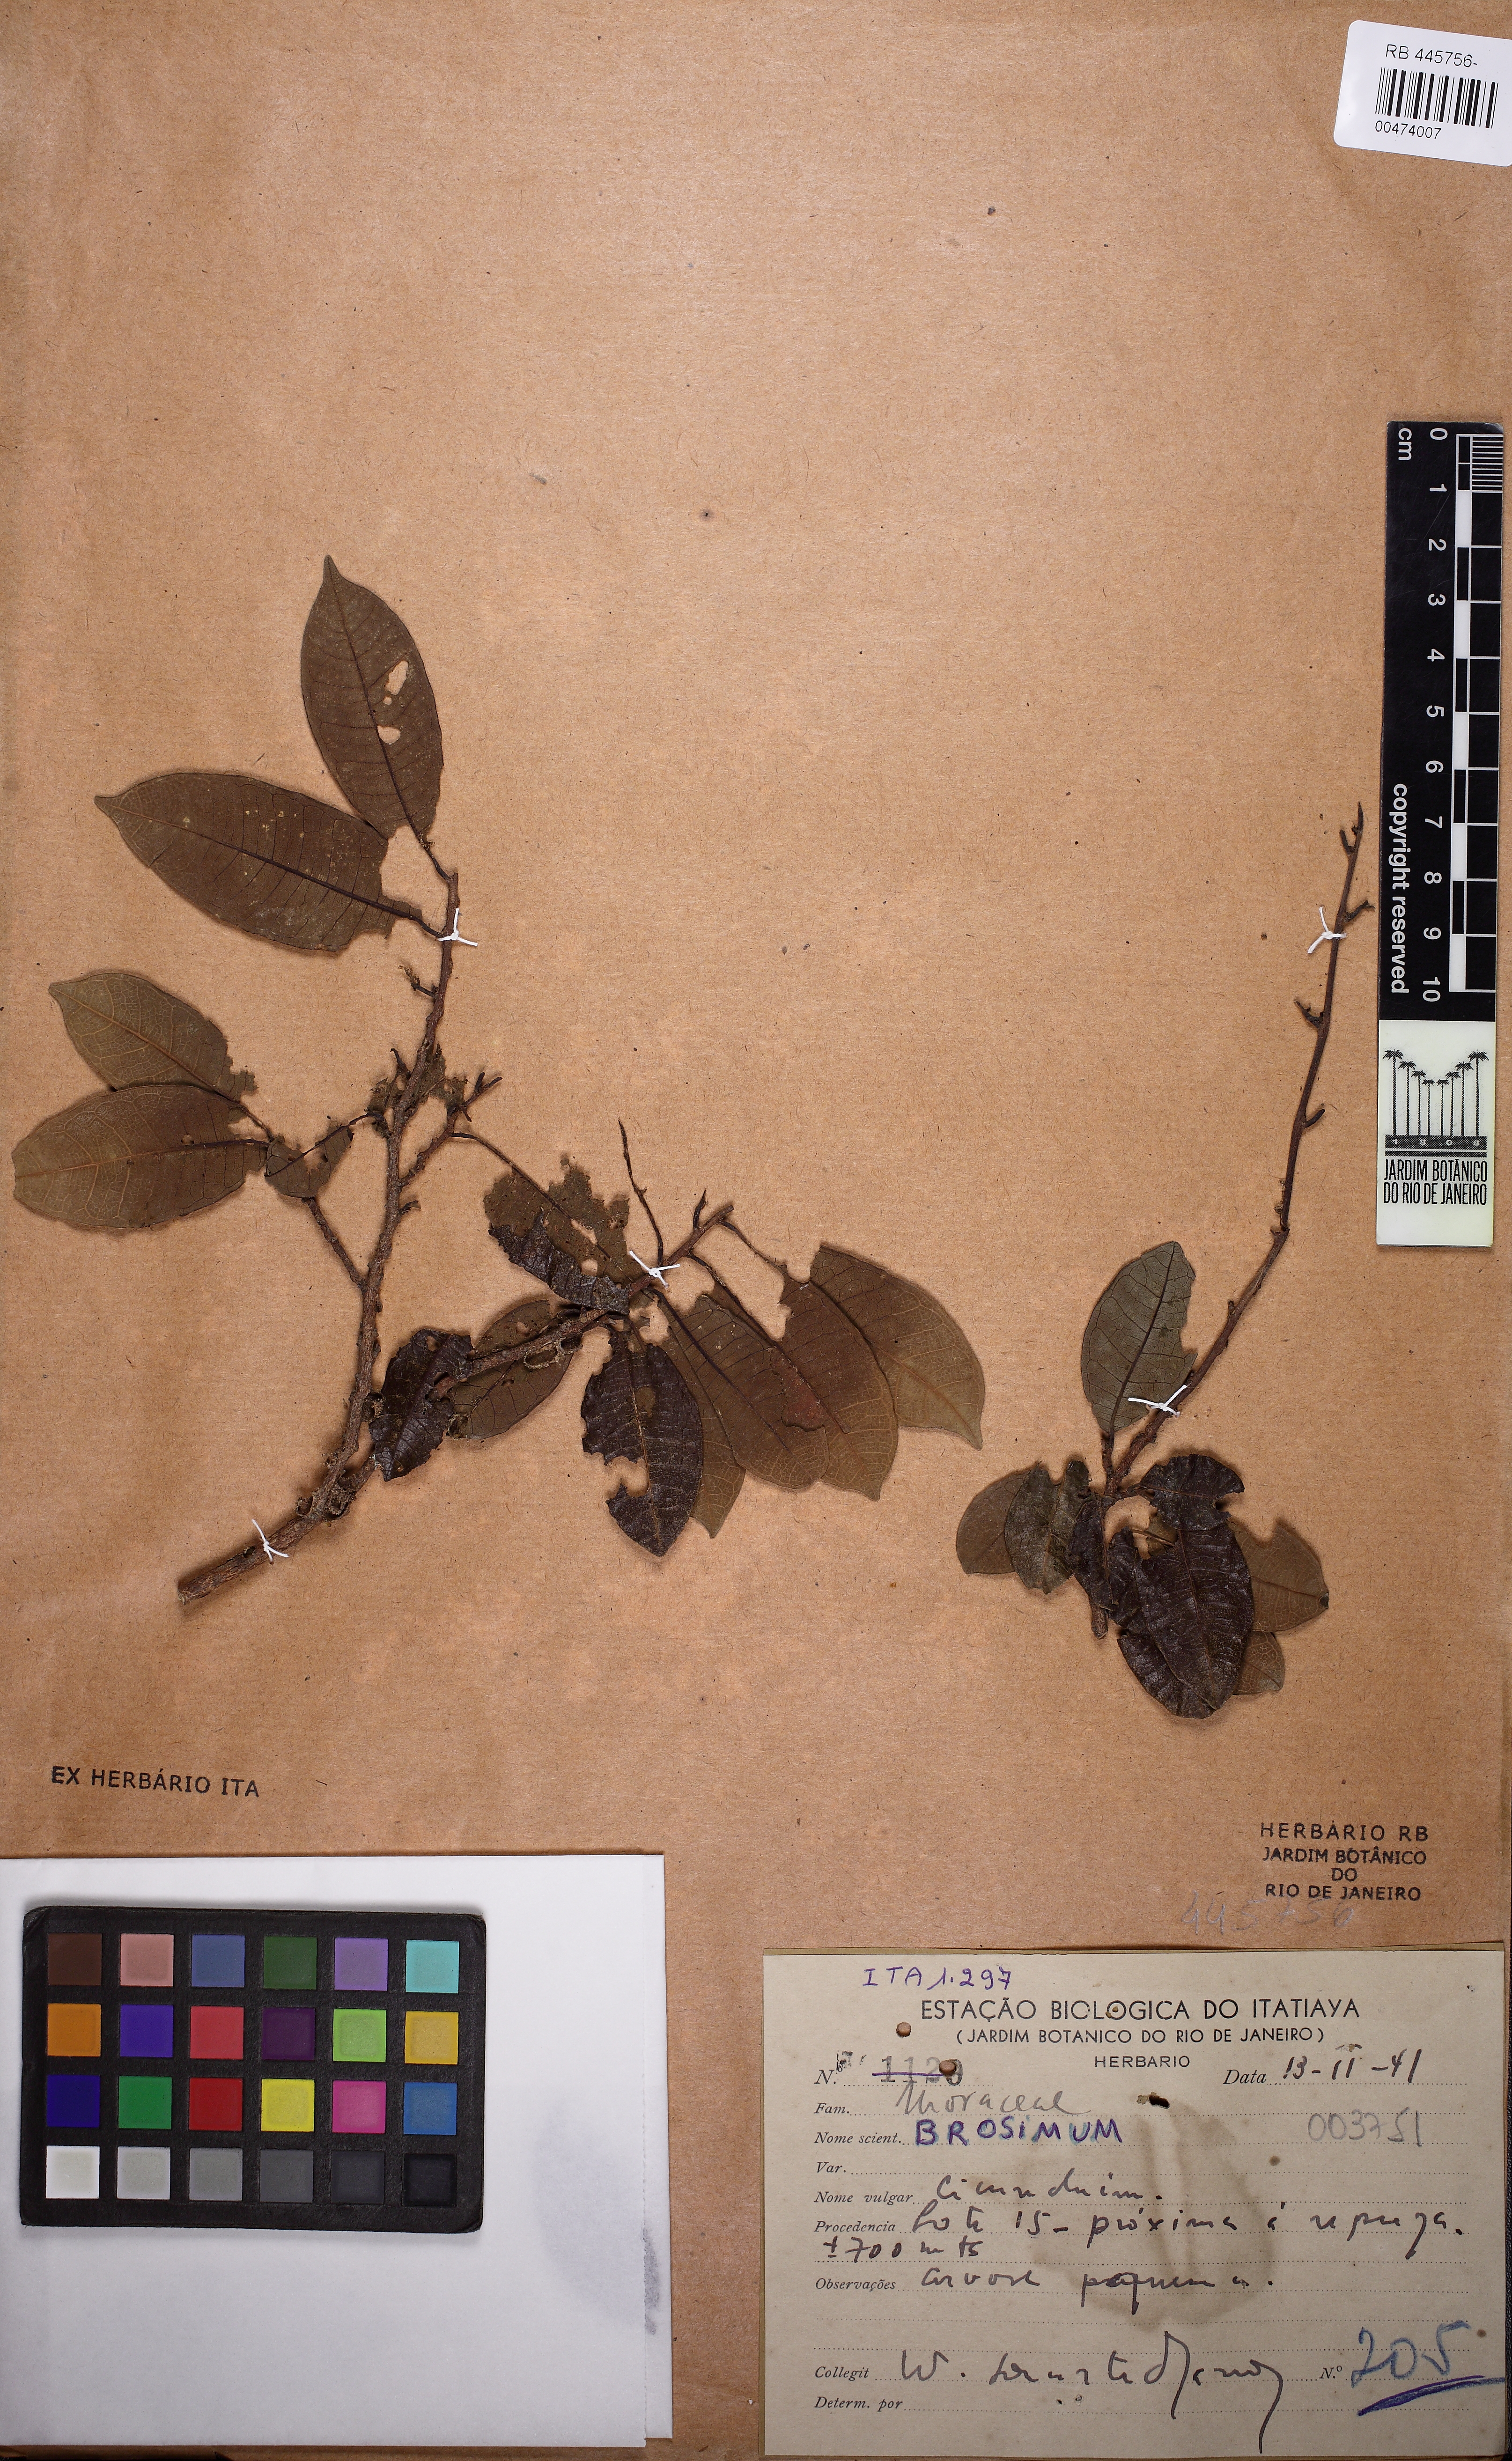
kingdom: Plantae
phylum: Tracheophyta
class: Magnoliopsida
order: Rosales
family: Moraceae
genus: Brosimum
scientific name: Brosimum
